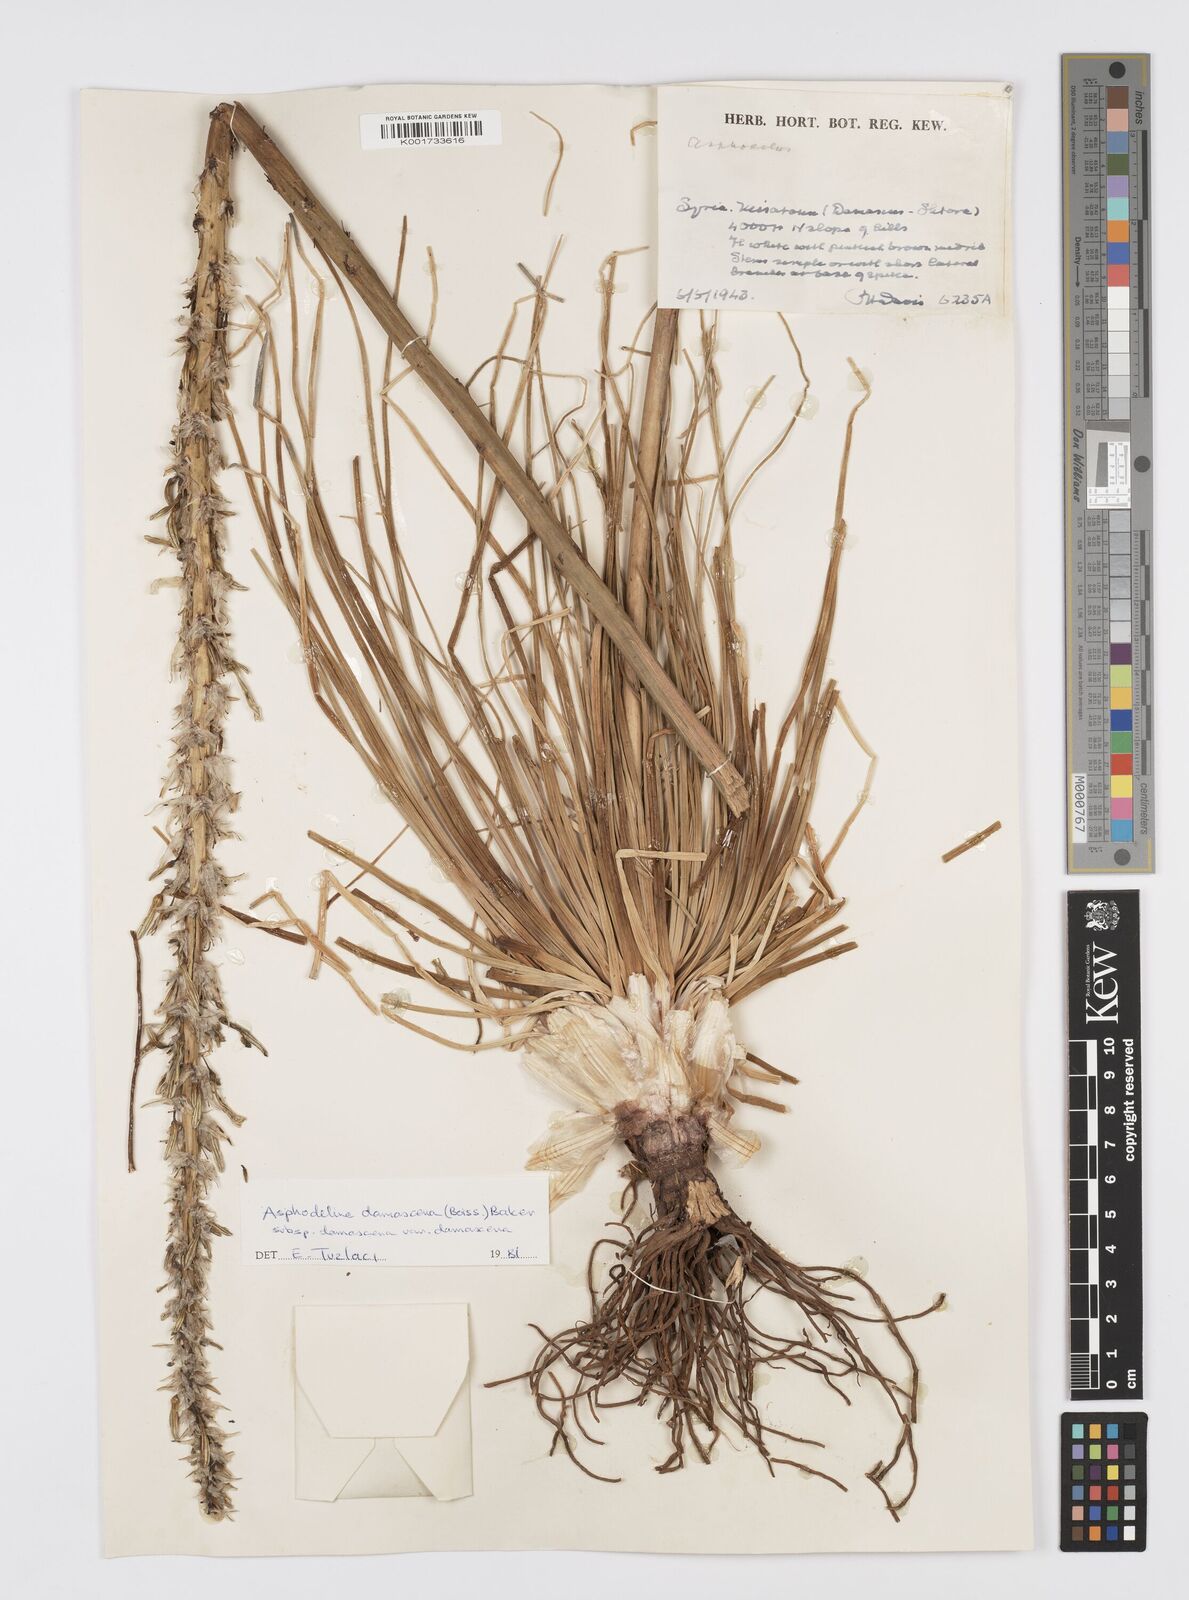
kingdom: Plantae
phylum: Tracheophyta
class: Liliopsida
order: Asparagales
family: Asphodelaceae
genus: Asphodeline
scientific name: Asphodeline damascena
